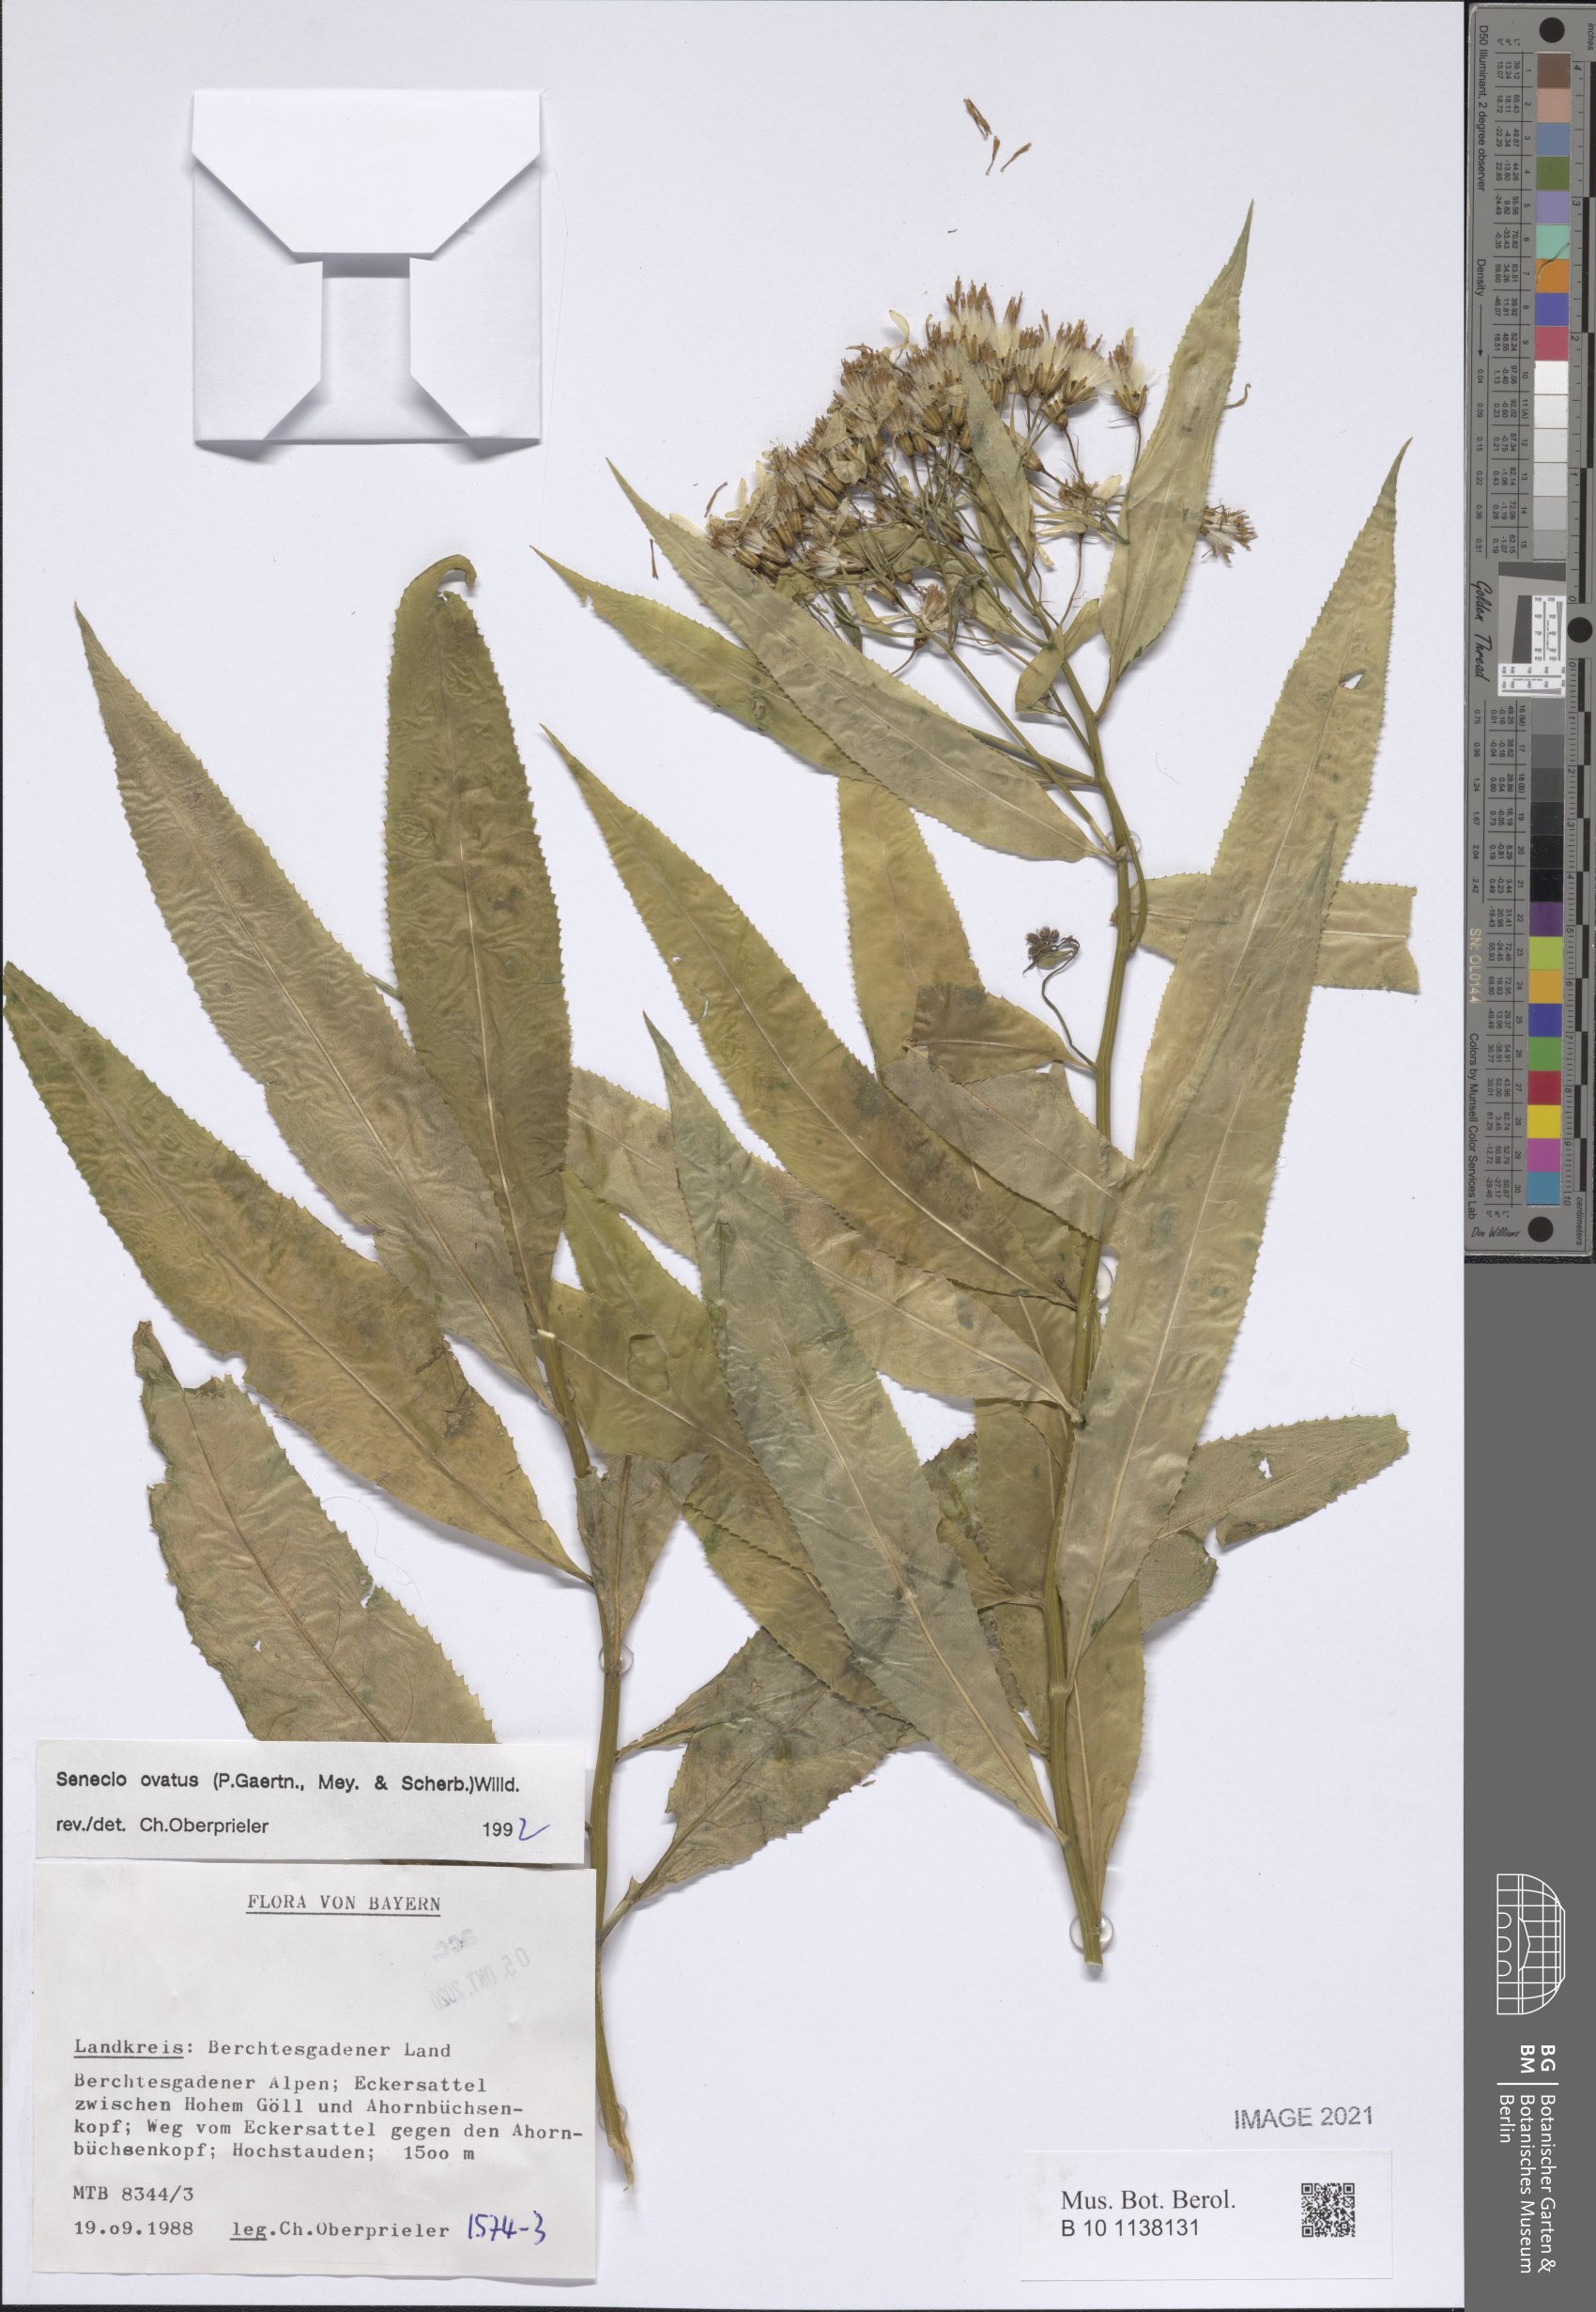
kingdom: Plantae
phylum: Tracheophyta
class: Magnoliopsida
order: Asterales
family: Asteraceae
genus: Senecio
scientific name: Senecio ovatus
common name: Wood ragwort
